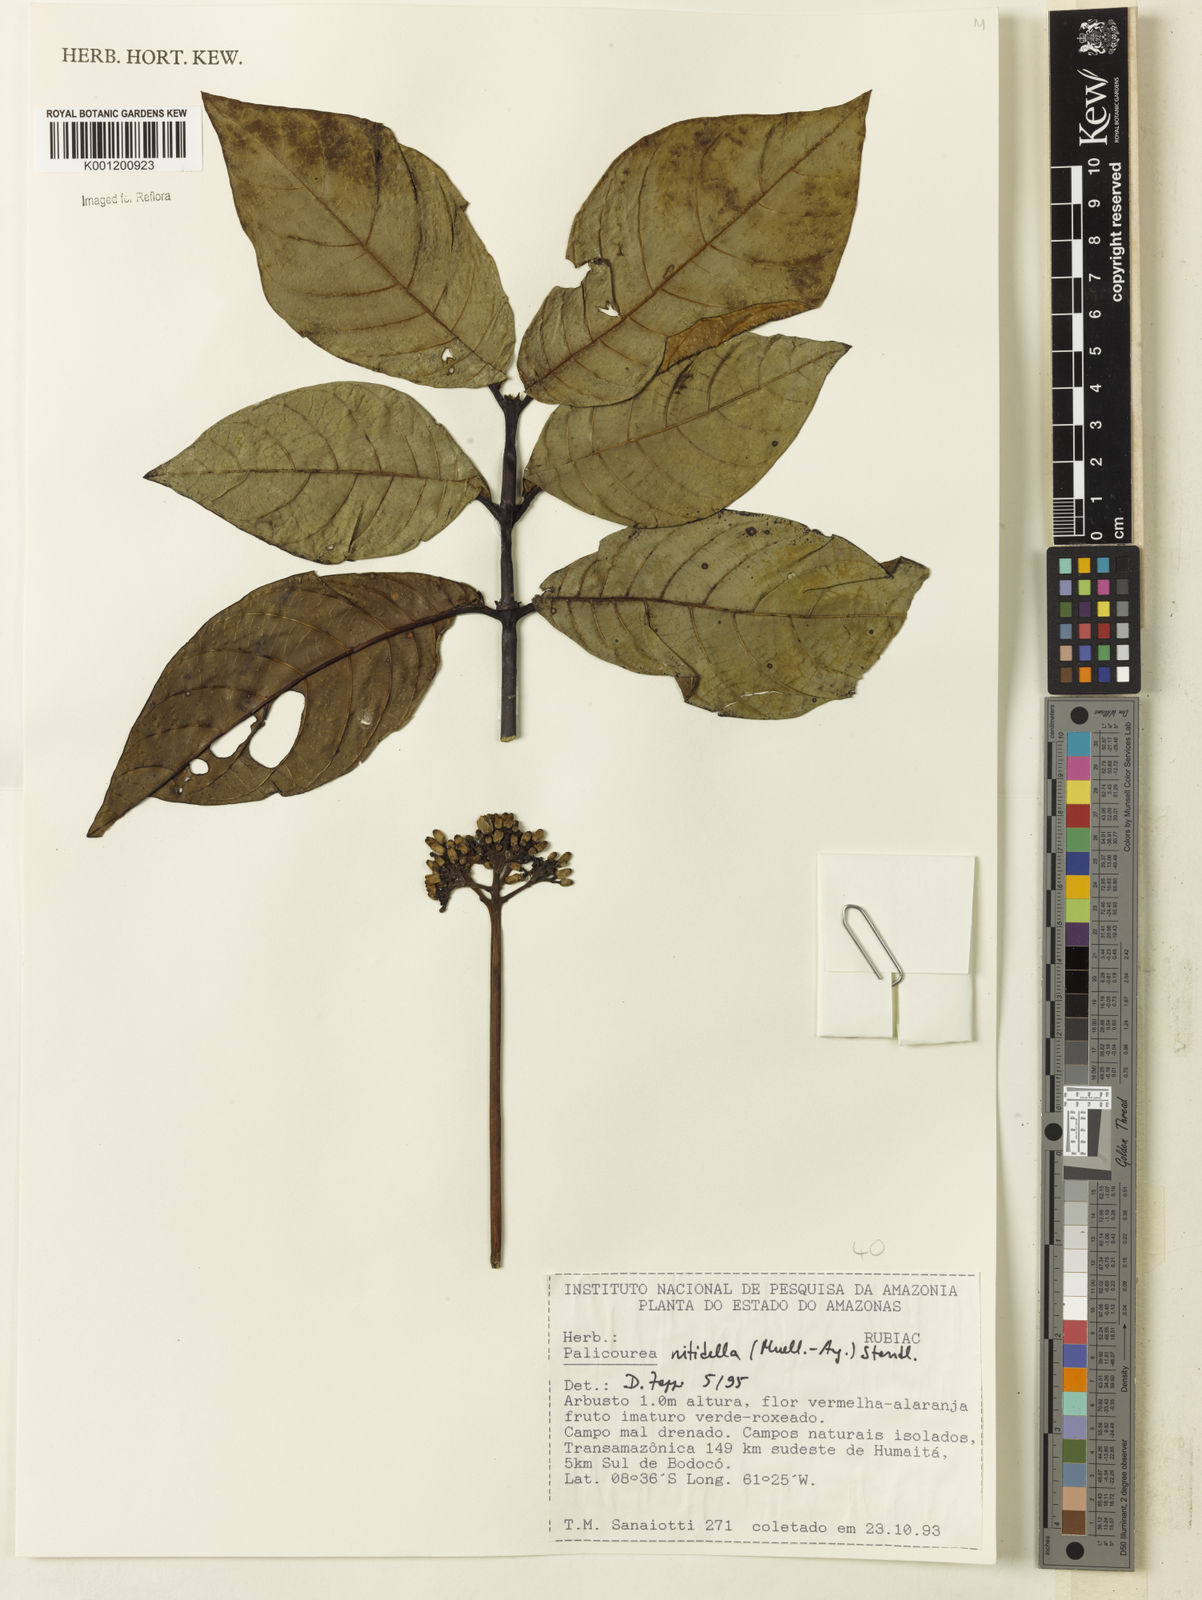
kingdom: Plantae
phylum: Tracheophyta
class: Magnoliopsida
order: Gentianales
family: Rubiaceae
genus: Palicourea
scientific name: Palicourea
